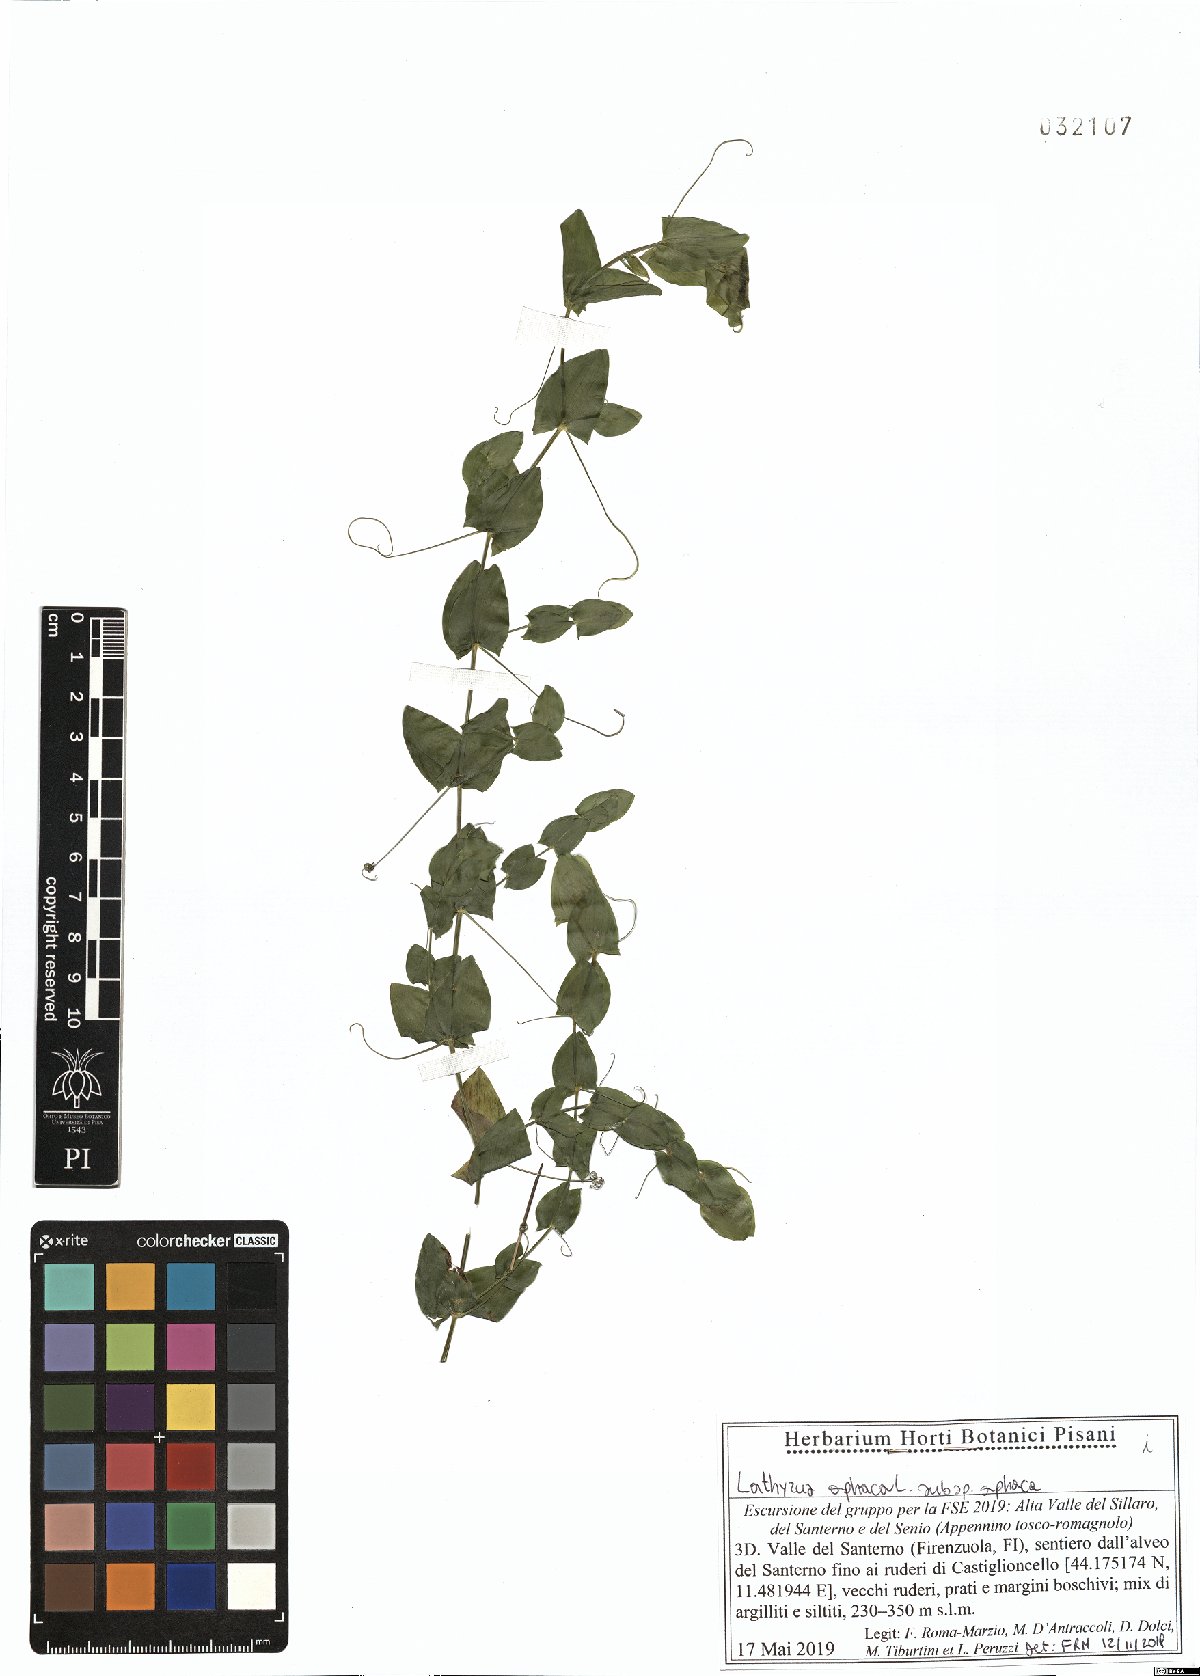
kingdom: Plantae
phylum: Tracheophyta
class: Magnoliopsida
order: Fabales
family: Fabaceae
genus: Lathyrus
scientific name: Lathyrus aphaca
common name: Yellow vetchling
